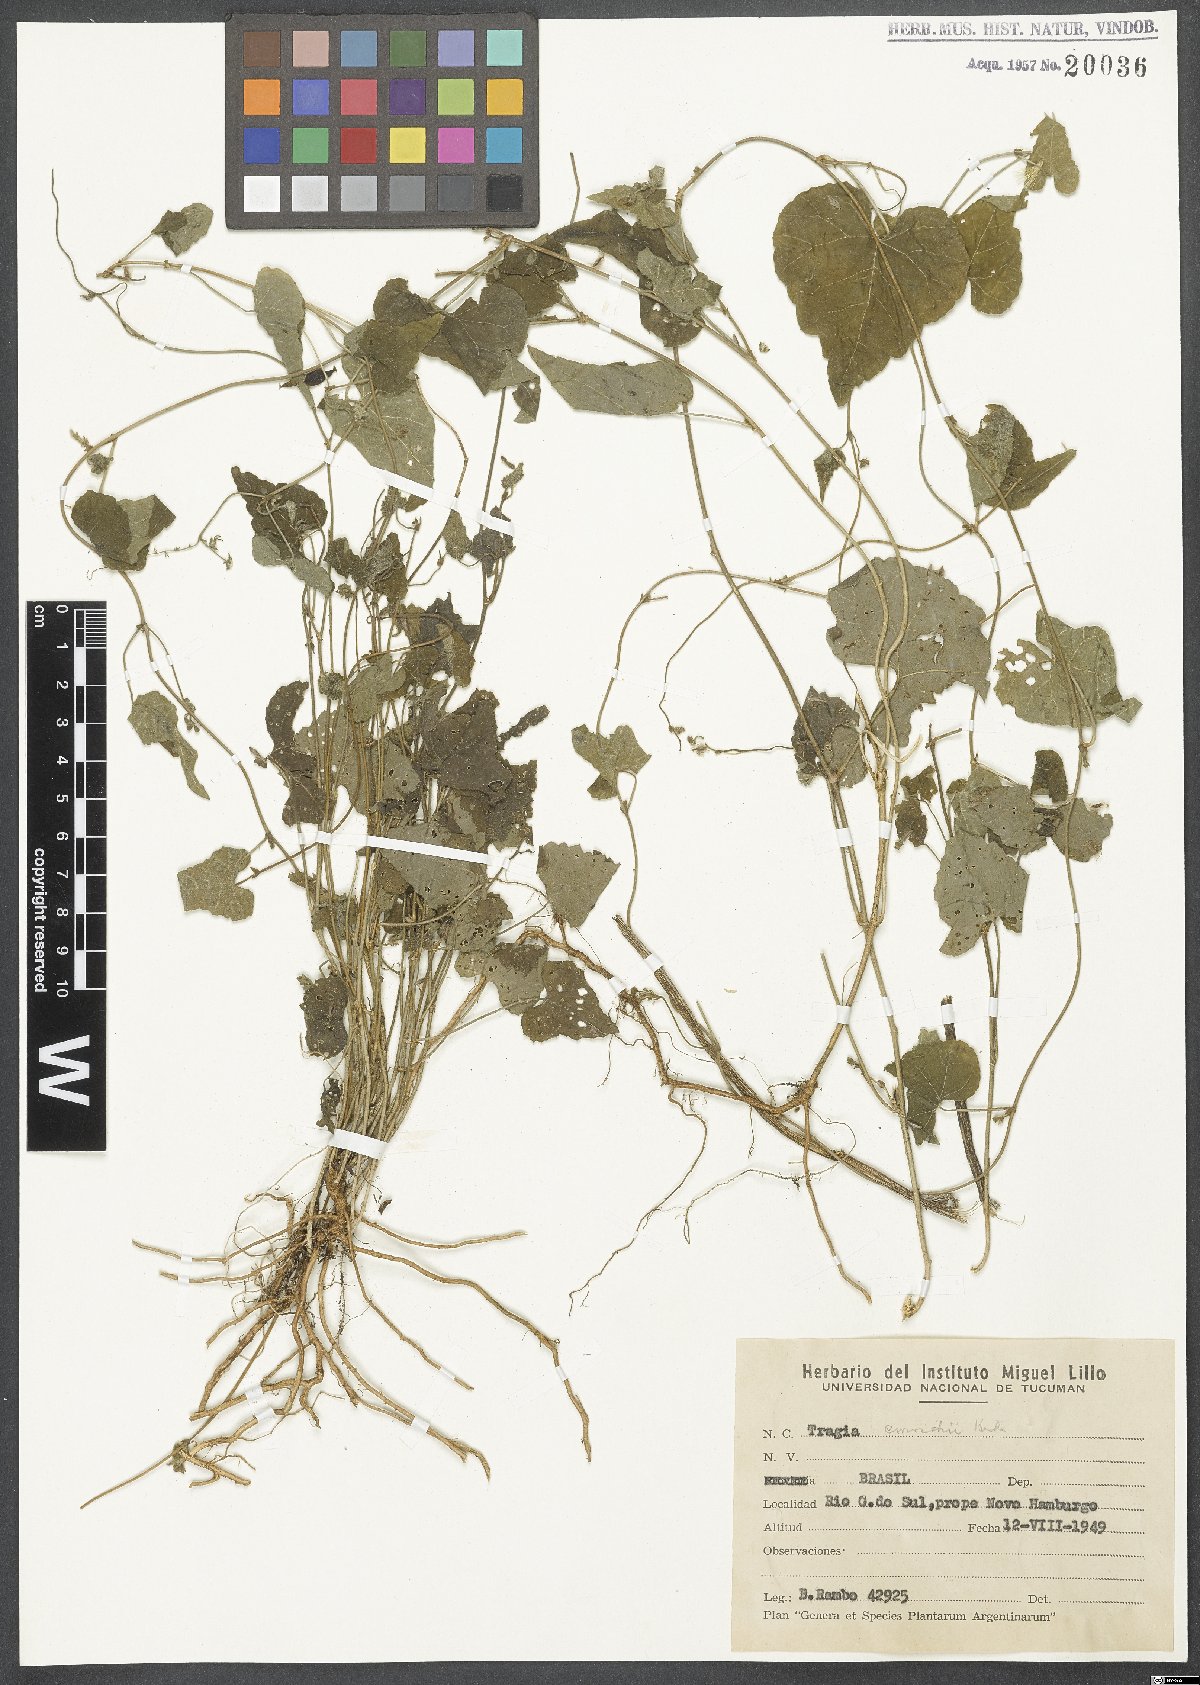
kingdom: Plantae
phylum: Tracheophyta
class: Magnoliopsida
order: Malpighiales
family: Euphorbiaceae
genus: Tragia
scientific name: Tragia bahiensis
